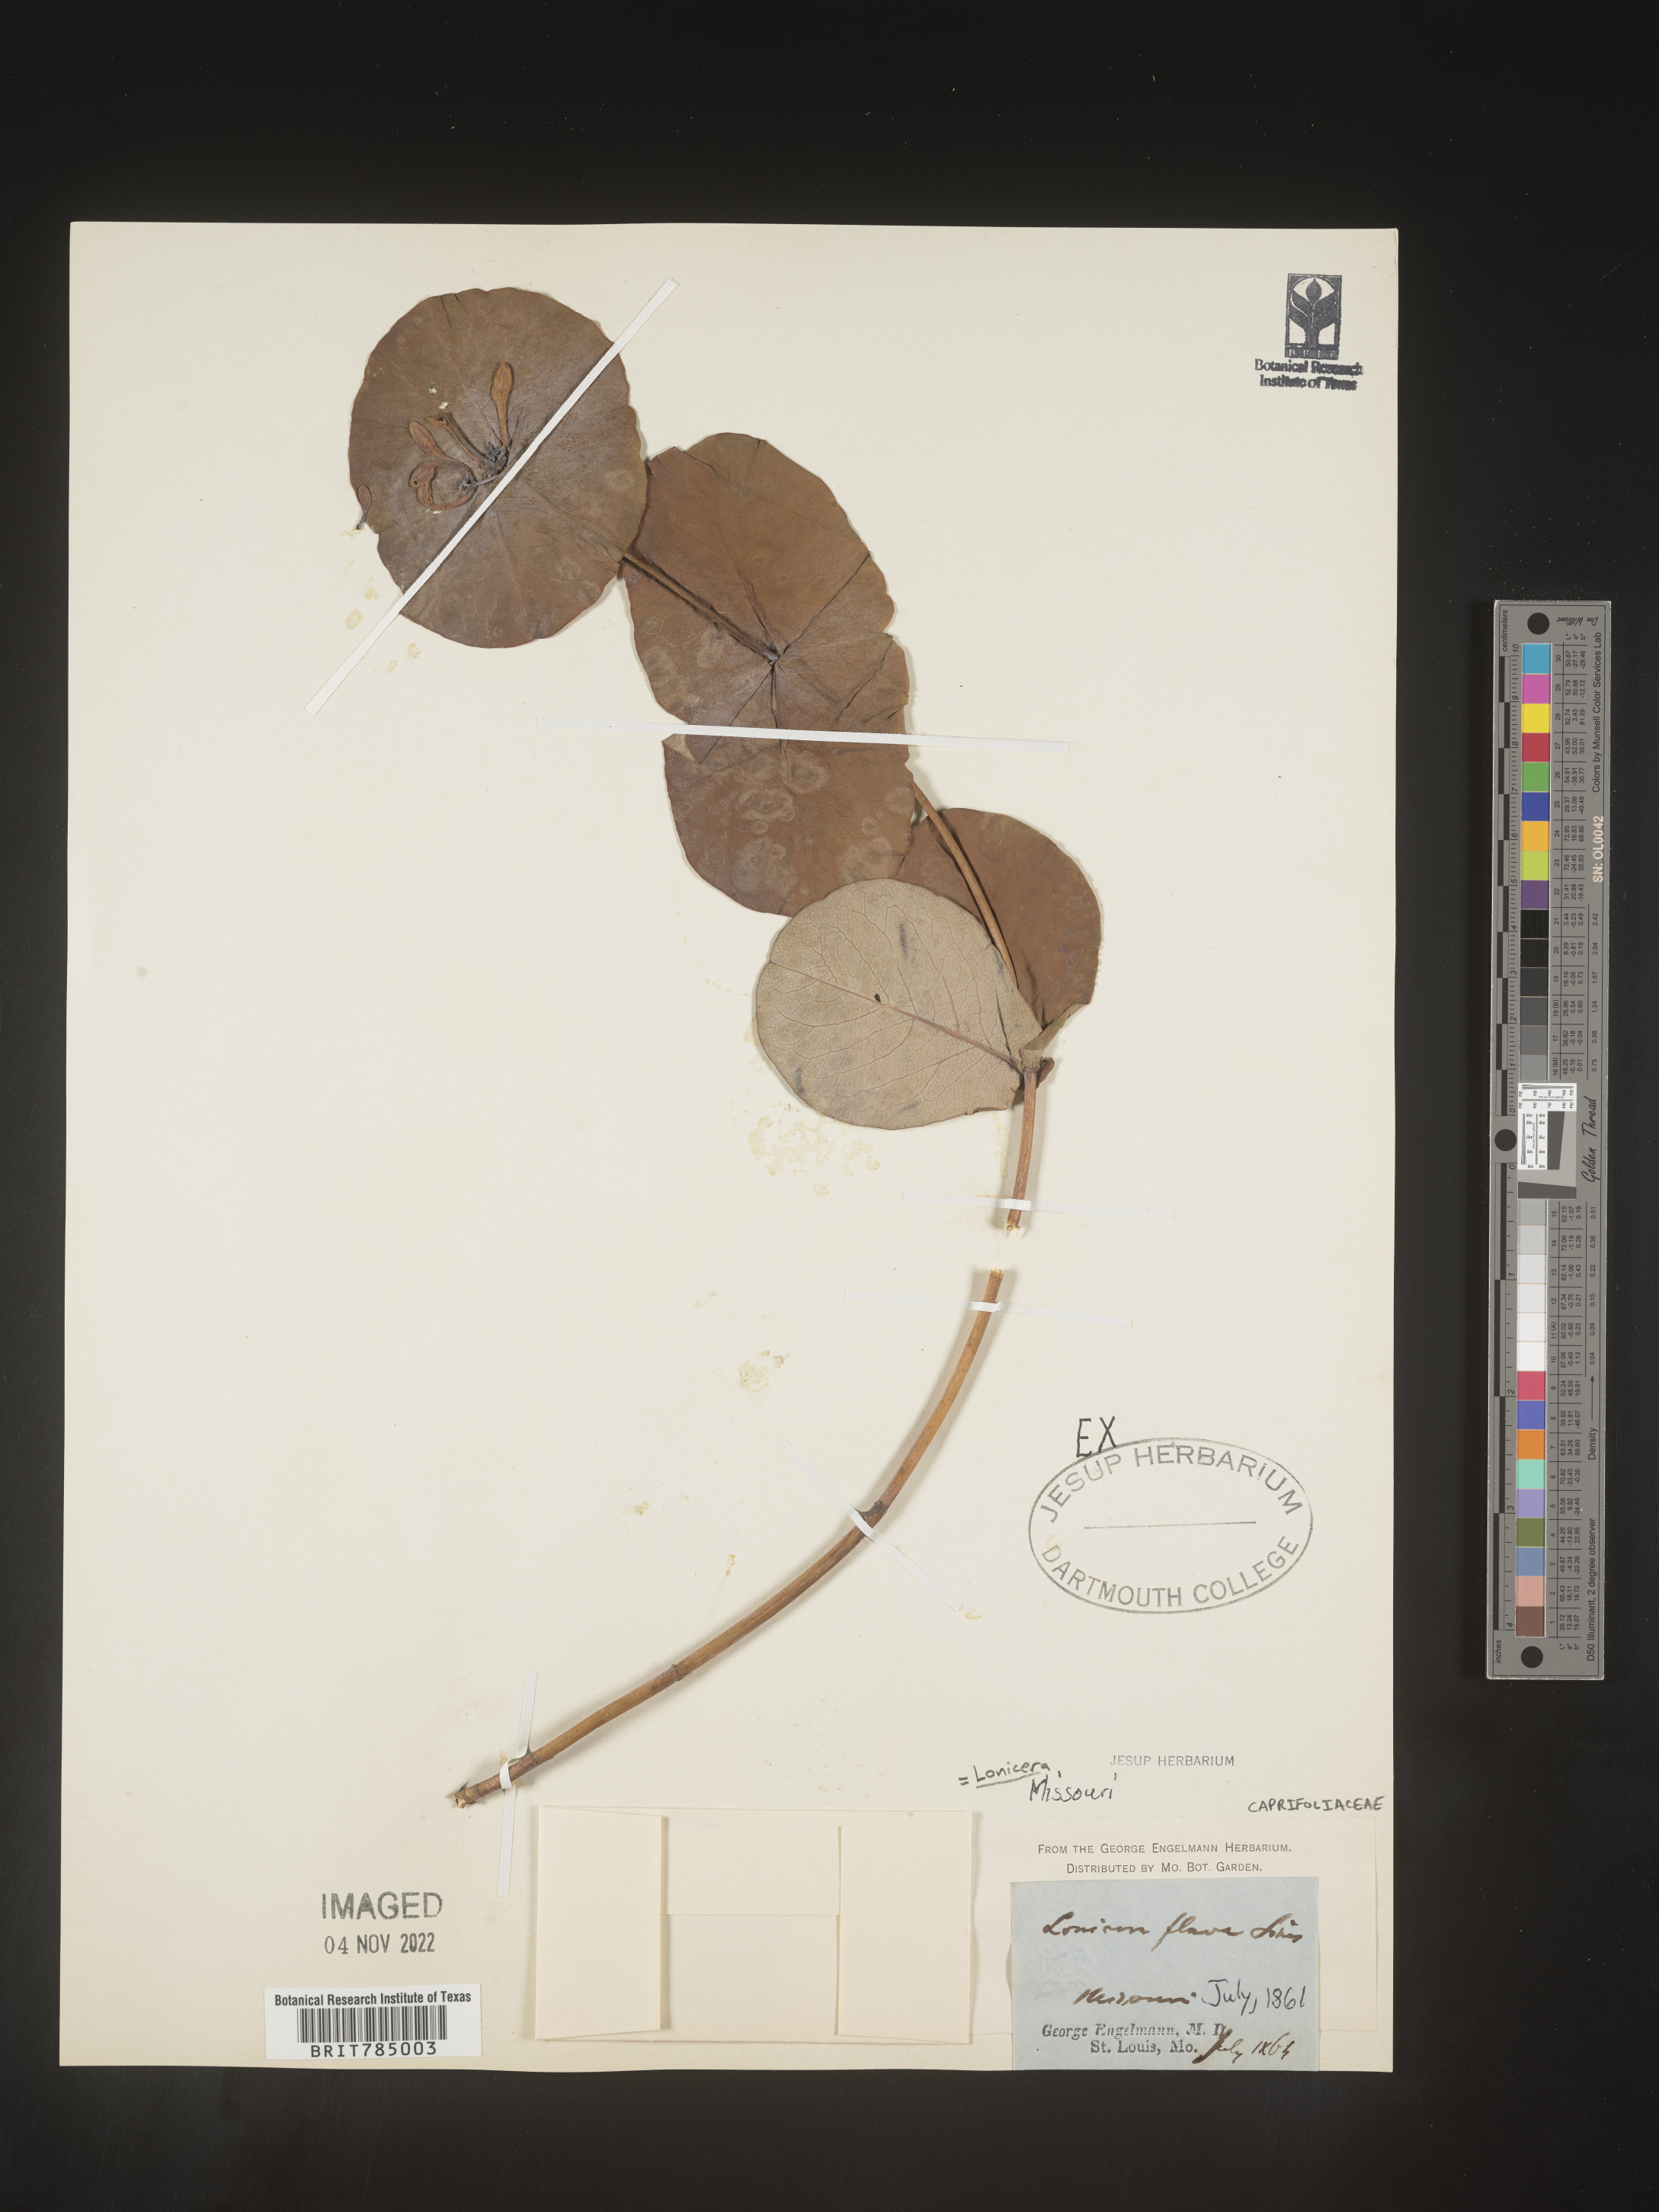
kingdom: Plantae
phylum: Tracheophyta
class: Magnoliopsida
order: Dipsacales
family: Caprifoliaceae
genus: Lonicera
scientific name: Lonicera flava
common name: Yellow honeysuckle
